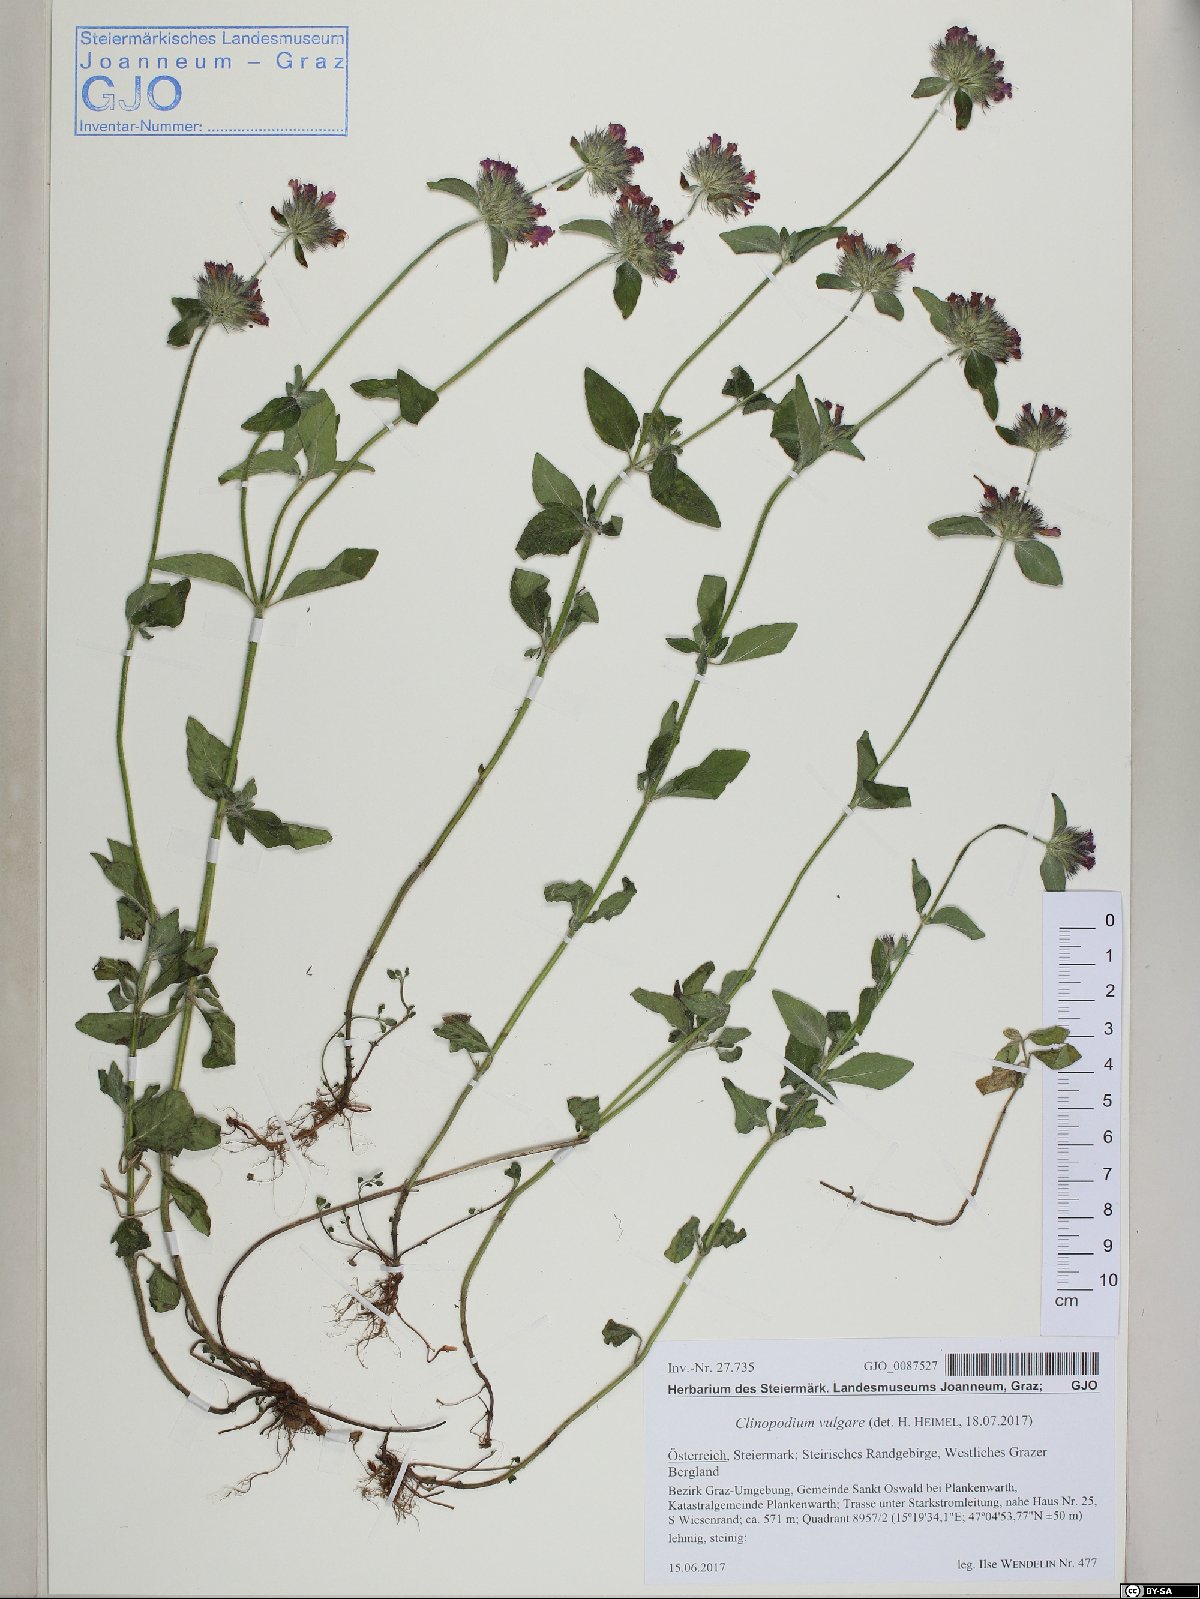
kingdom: Plantae
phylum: Tracheophyta
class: Magnoliopsida
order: Lamiales
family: Lamiaceae
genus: Clinopodium
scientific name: Clinopodium vulgare
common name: Wild basil
